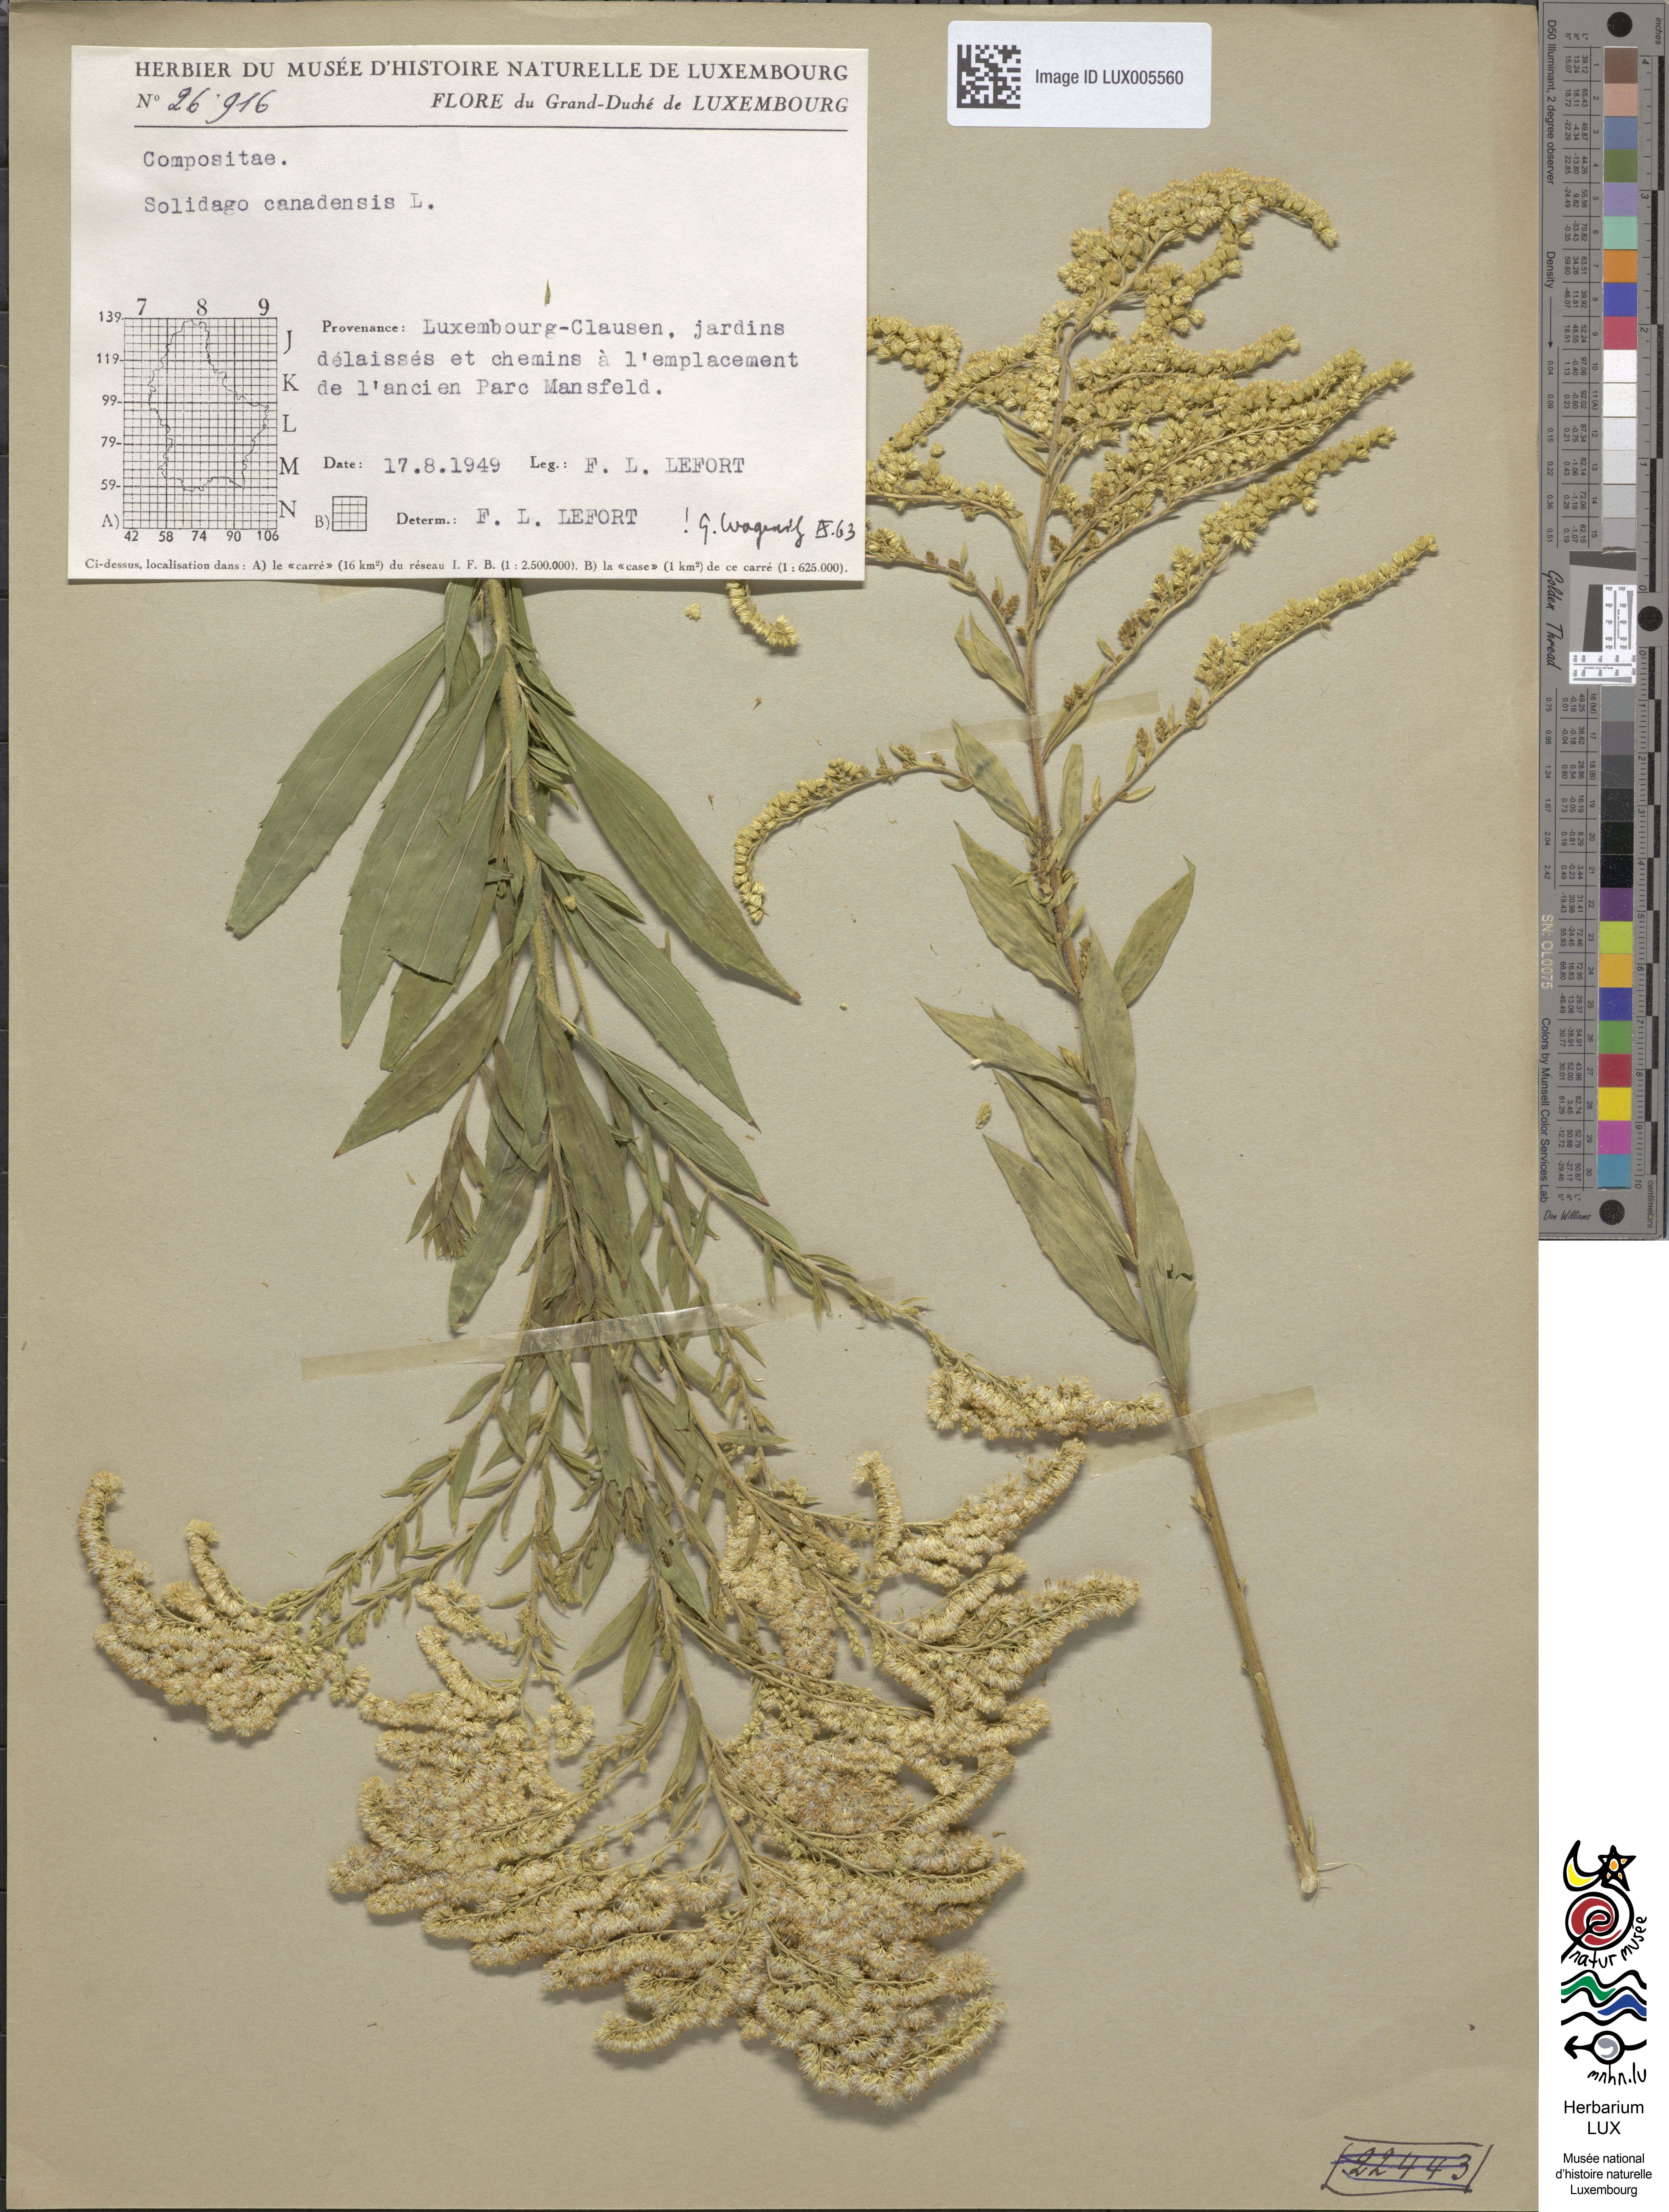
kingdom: Plantae
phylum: Tracheophyta
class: Magnoliopsida
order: Asterales
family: Asteraceae
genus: Solidago
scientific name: Solidago canadensis
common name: Canada goldenrod
